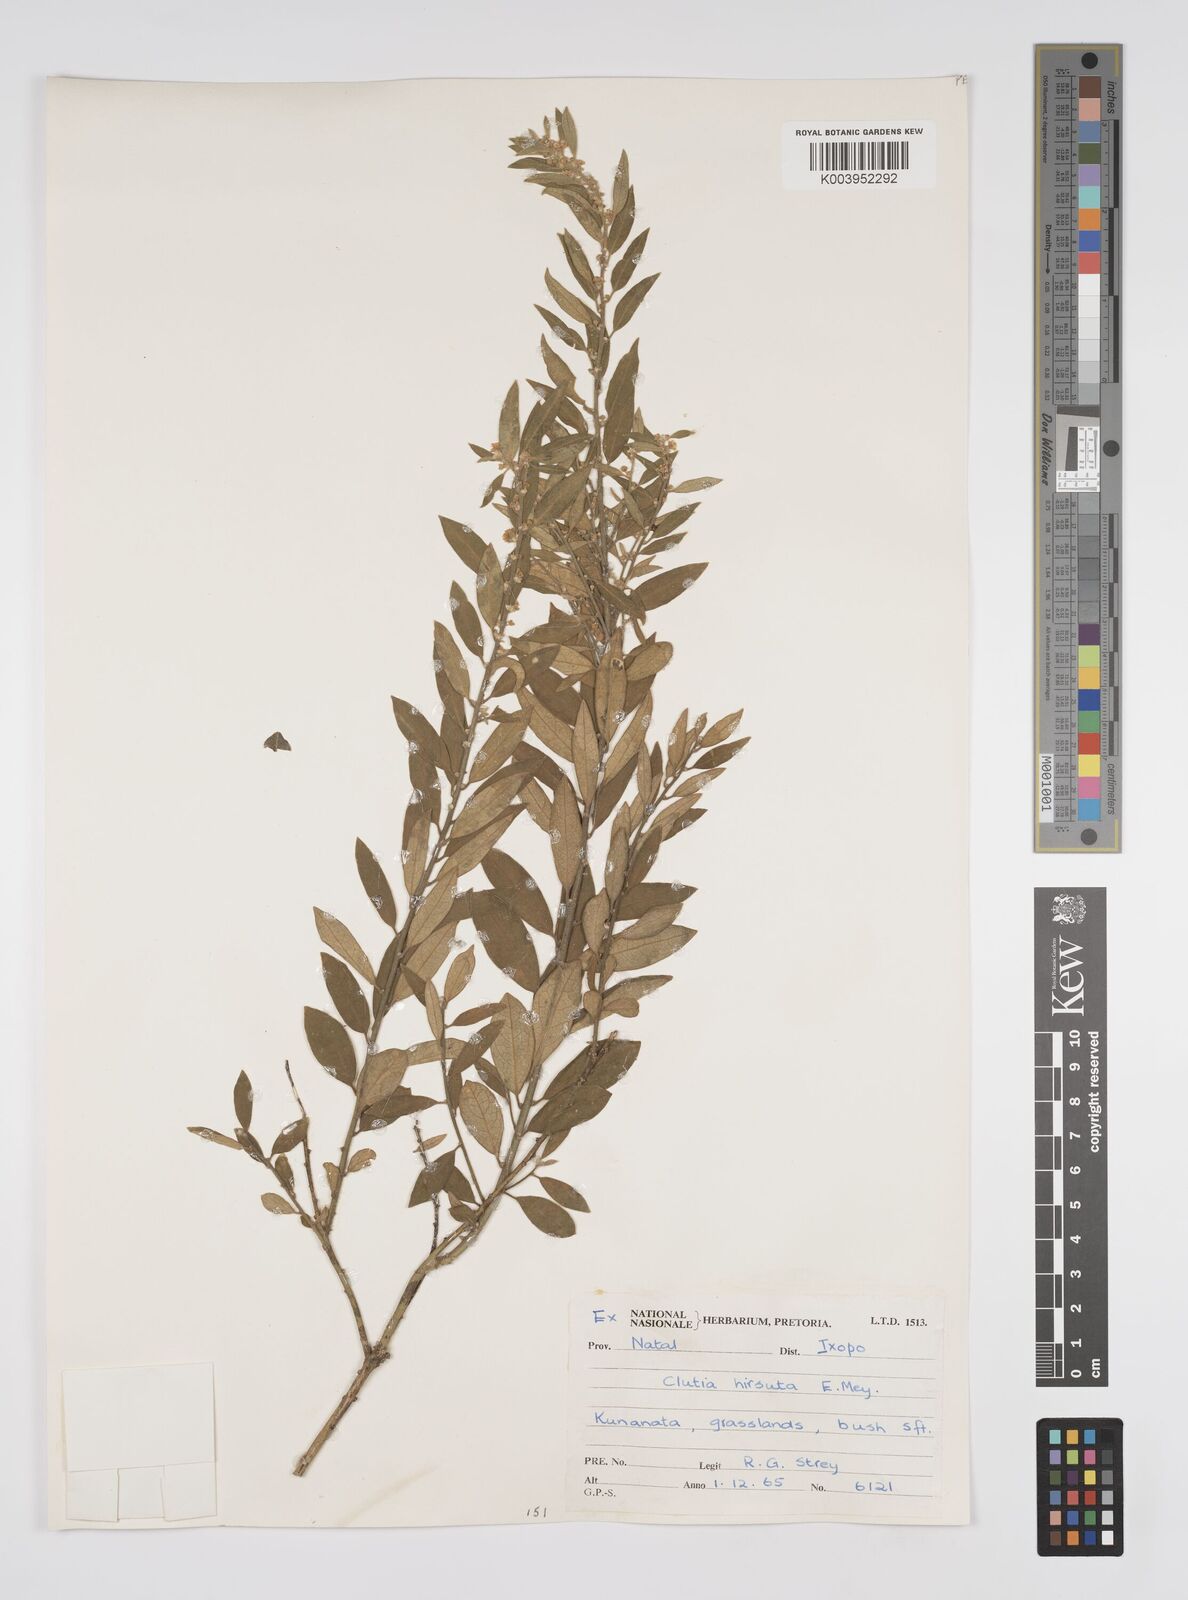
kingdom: Plantae
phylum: Tracheophyta
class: Magnoliopsida
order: Malpighiales
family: Peraceae
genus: Clutia
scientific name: Clutia hirsuta
